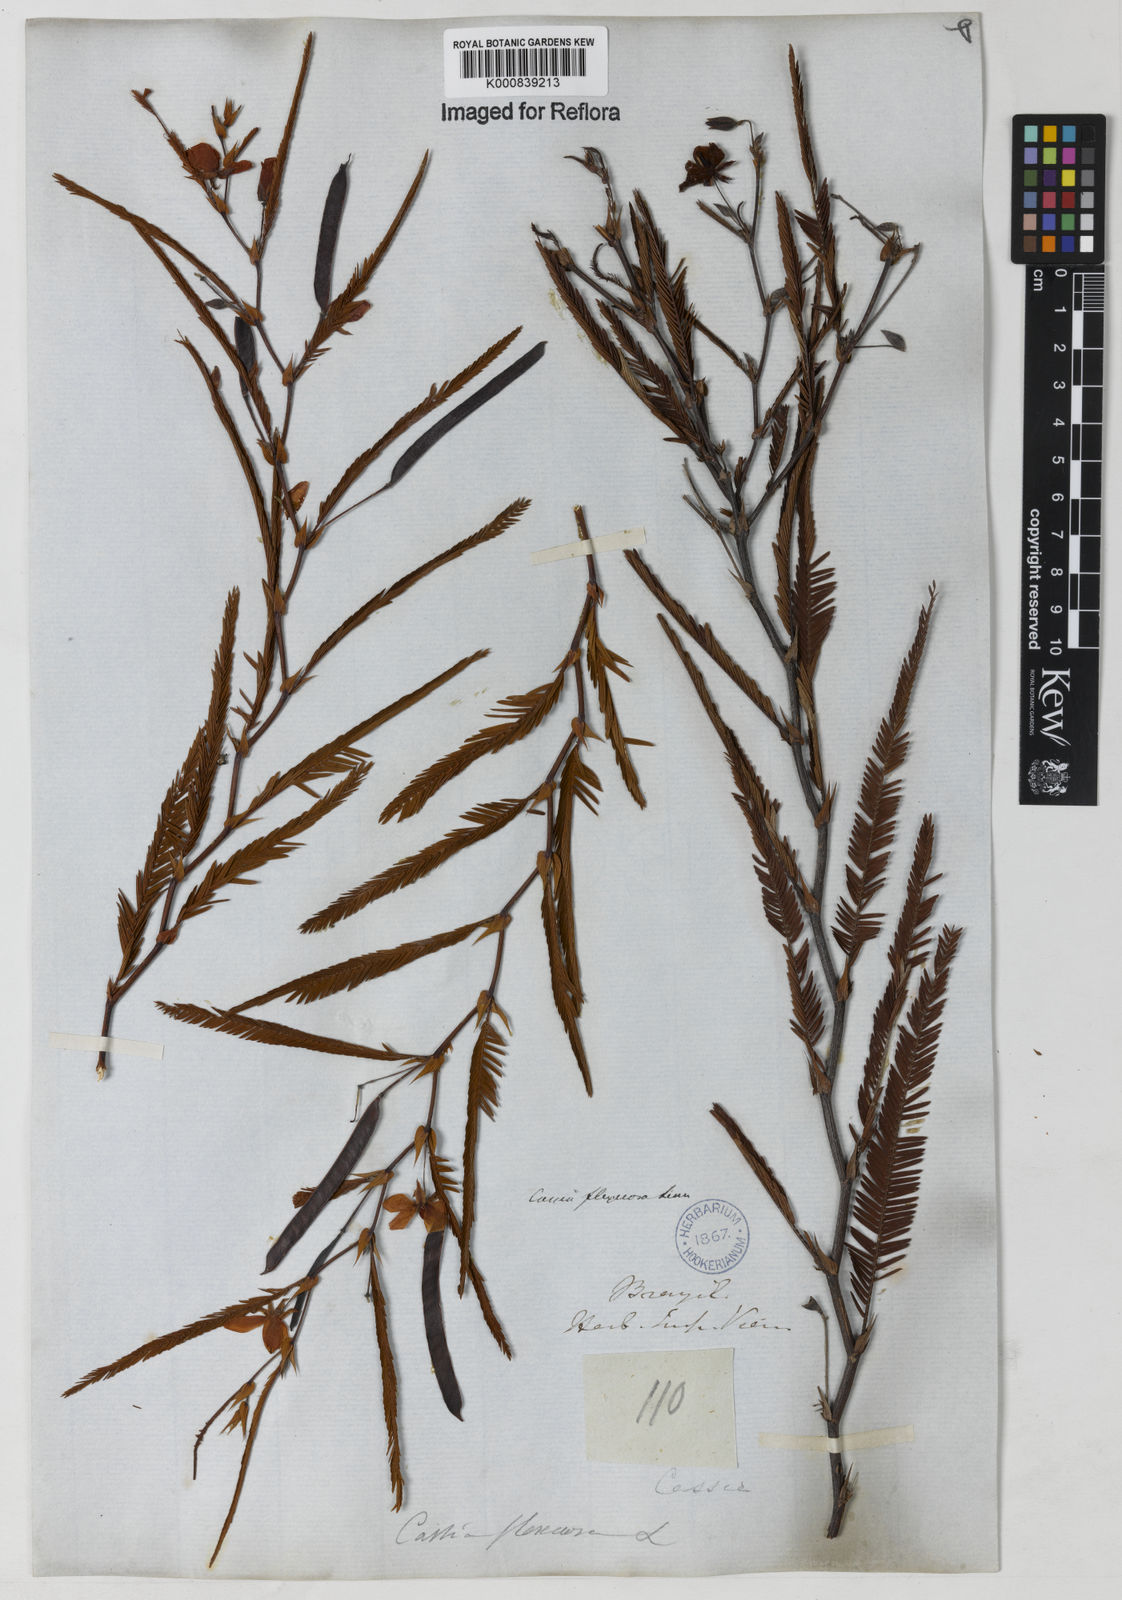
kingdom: Plantae
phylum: Tracheophyta
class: Magnoliopsida
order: Fabales
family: Fabaceae
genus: Chamaecrista
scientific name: Chamaecrista flexuosa
